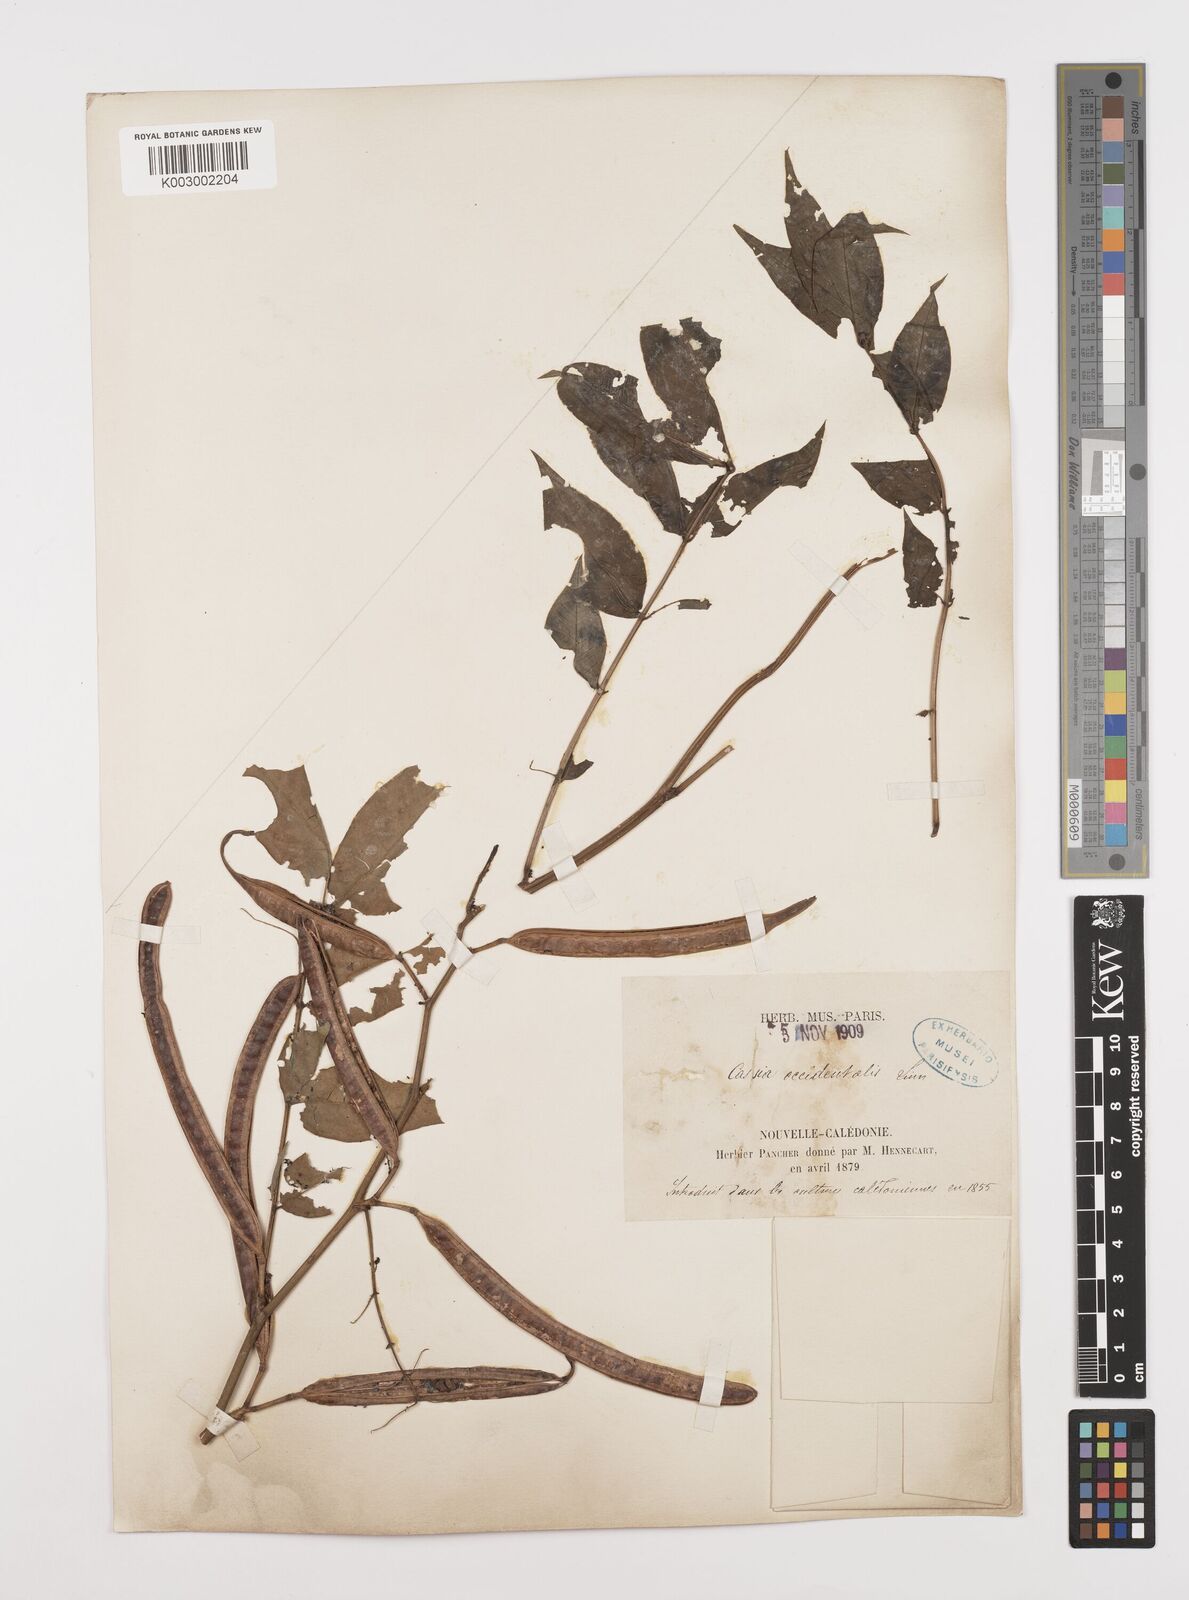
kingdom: Plantae
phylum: Tracheophyta
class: Magnoliopsida
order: Fabales
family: Fabaceae
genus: Senna
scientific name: Senna occidentalis
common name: Septicweed
